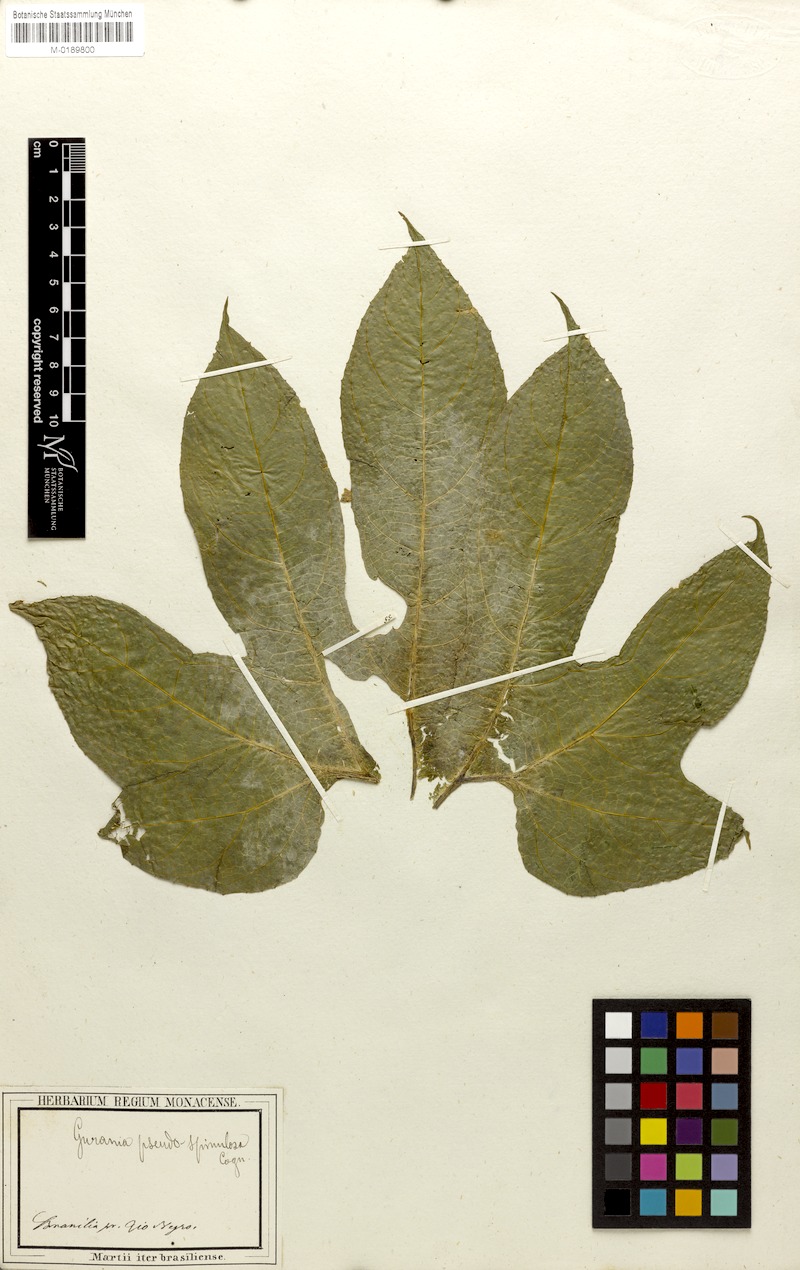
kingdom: Plantae
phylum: Tracheophyta
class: Magnoliopsida
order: Cucurbitales
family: Cucurbitaceae
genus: Gurania
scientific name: Gurania pseudospinulosa
